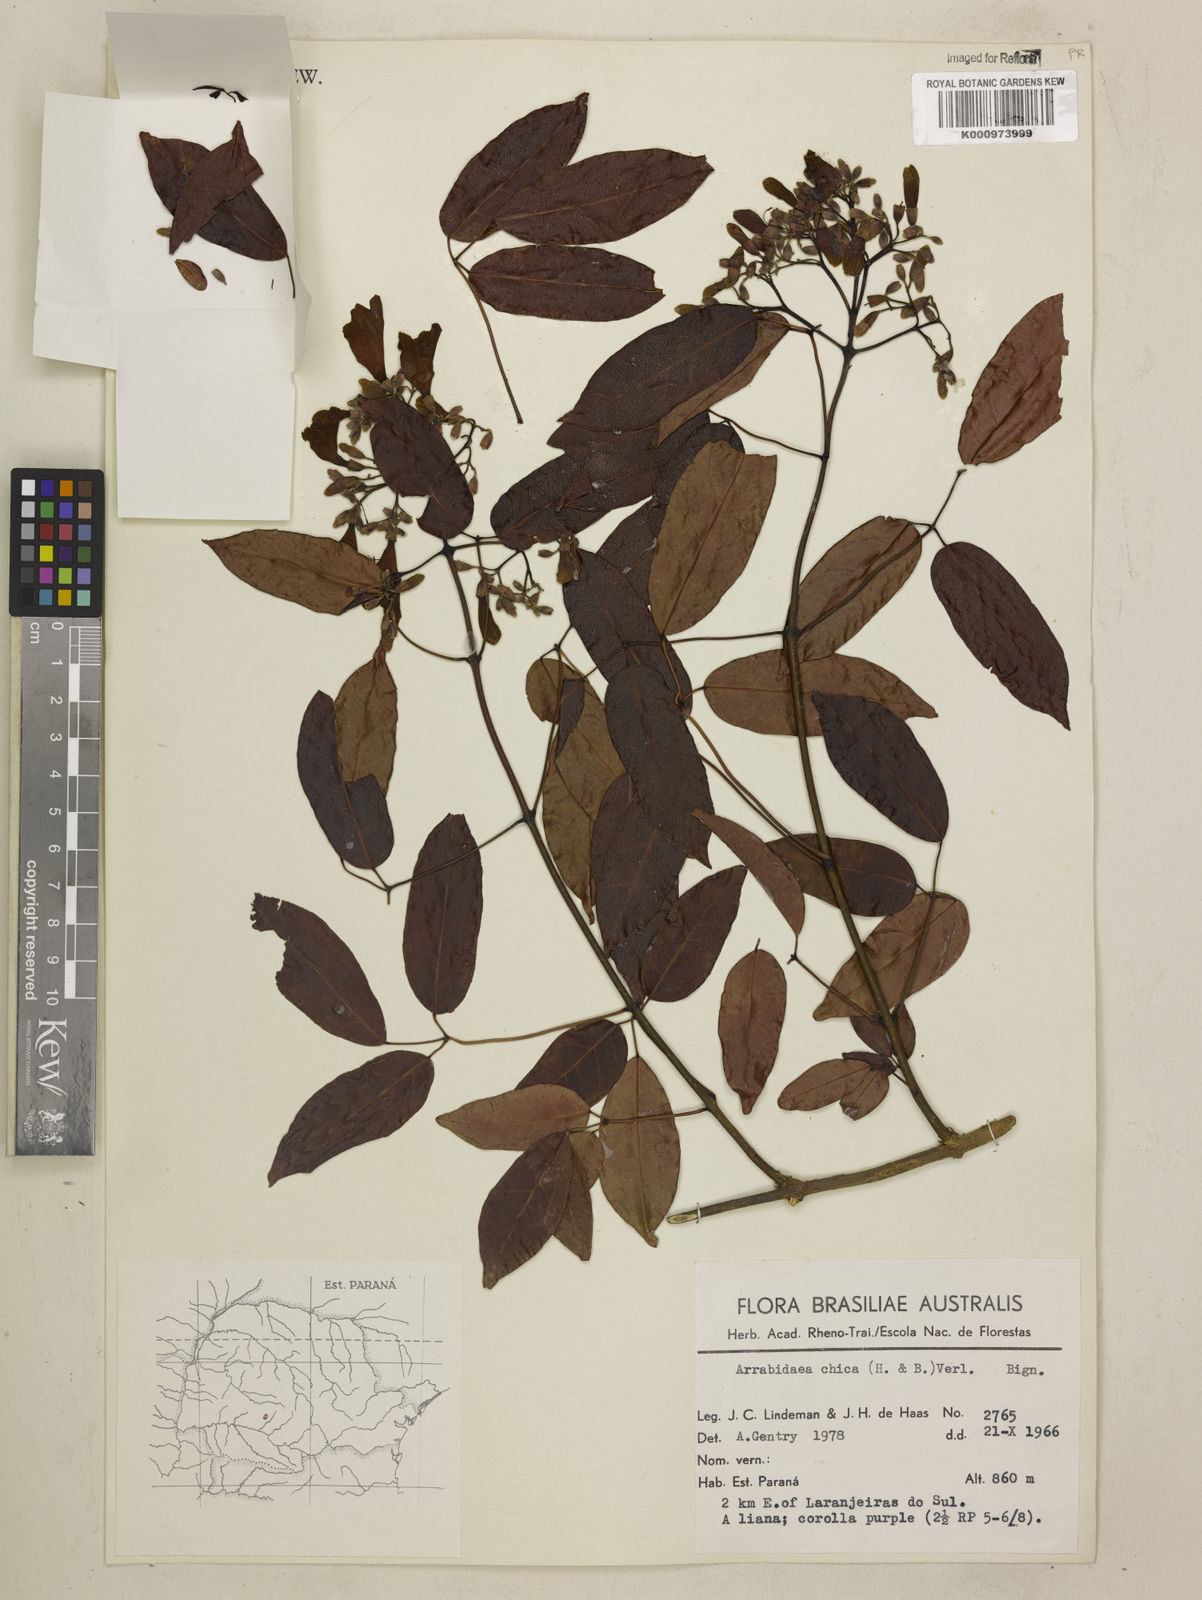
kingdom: Plantae
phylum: Tracheophyta
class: Magnoliopsida
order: Lamiales
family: Bignoniaceae
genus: Fridericia
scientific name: Fridericia chica
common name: Cricketvine
